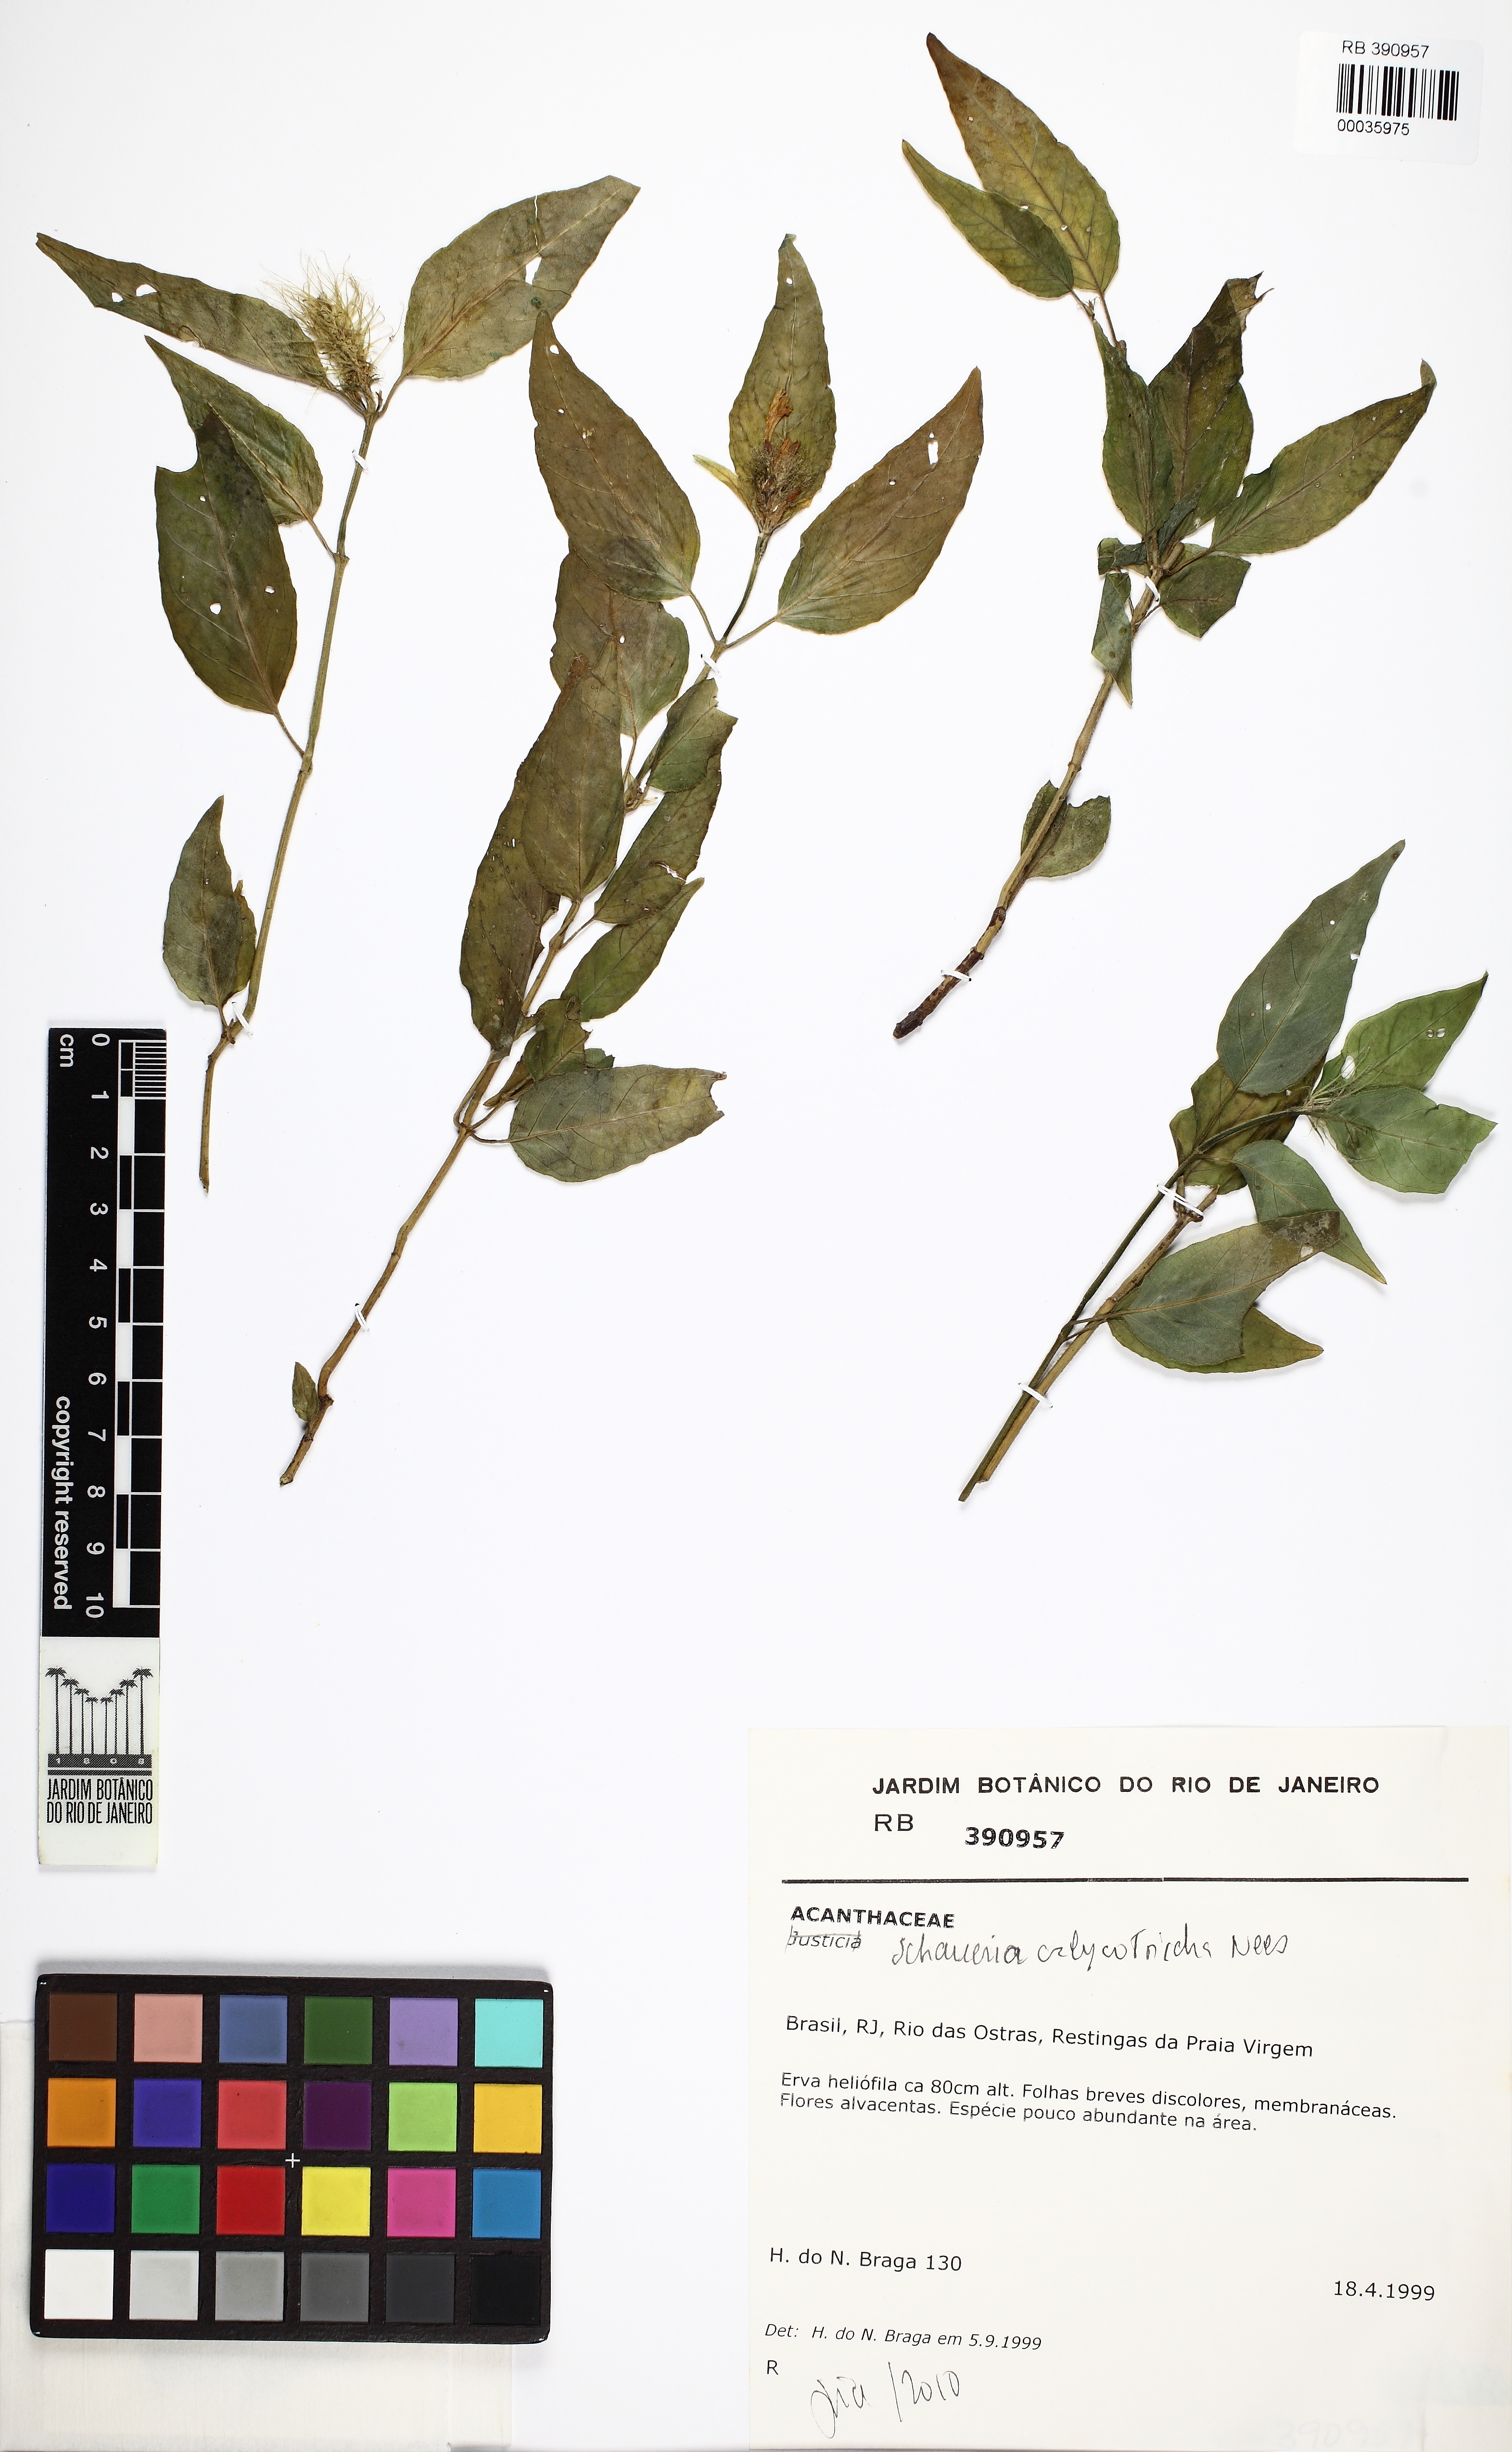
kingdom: Plantae
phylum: Tracheophyta
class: Magnoliopsida
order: Lamiales
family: Acanthaceae
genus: Schaueria
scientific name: Schaueria calytricha
